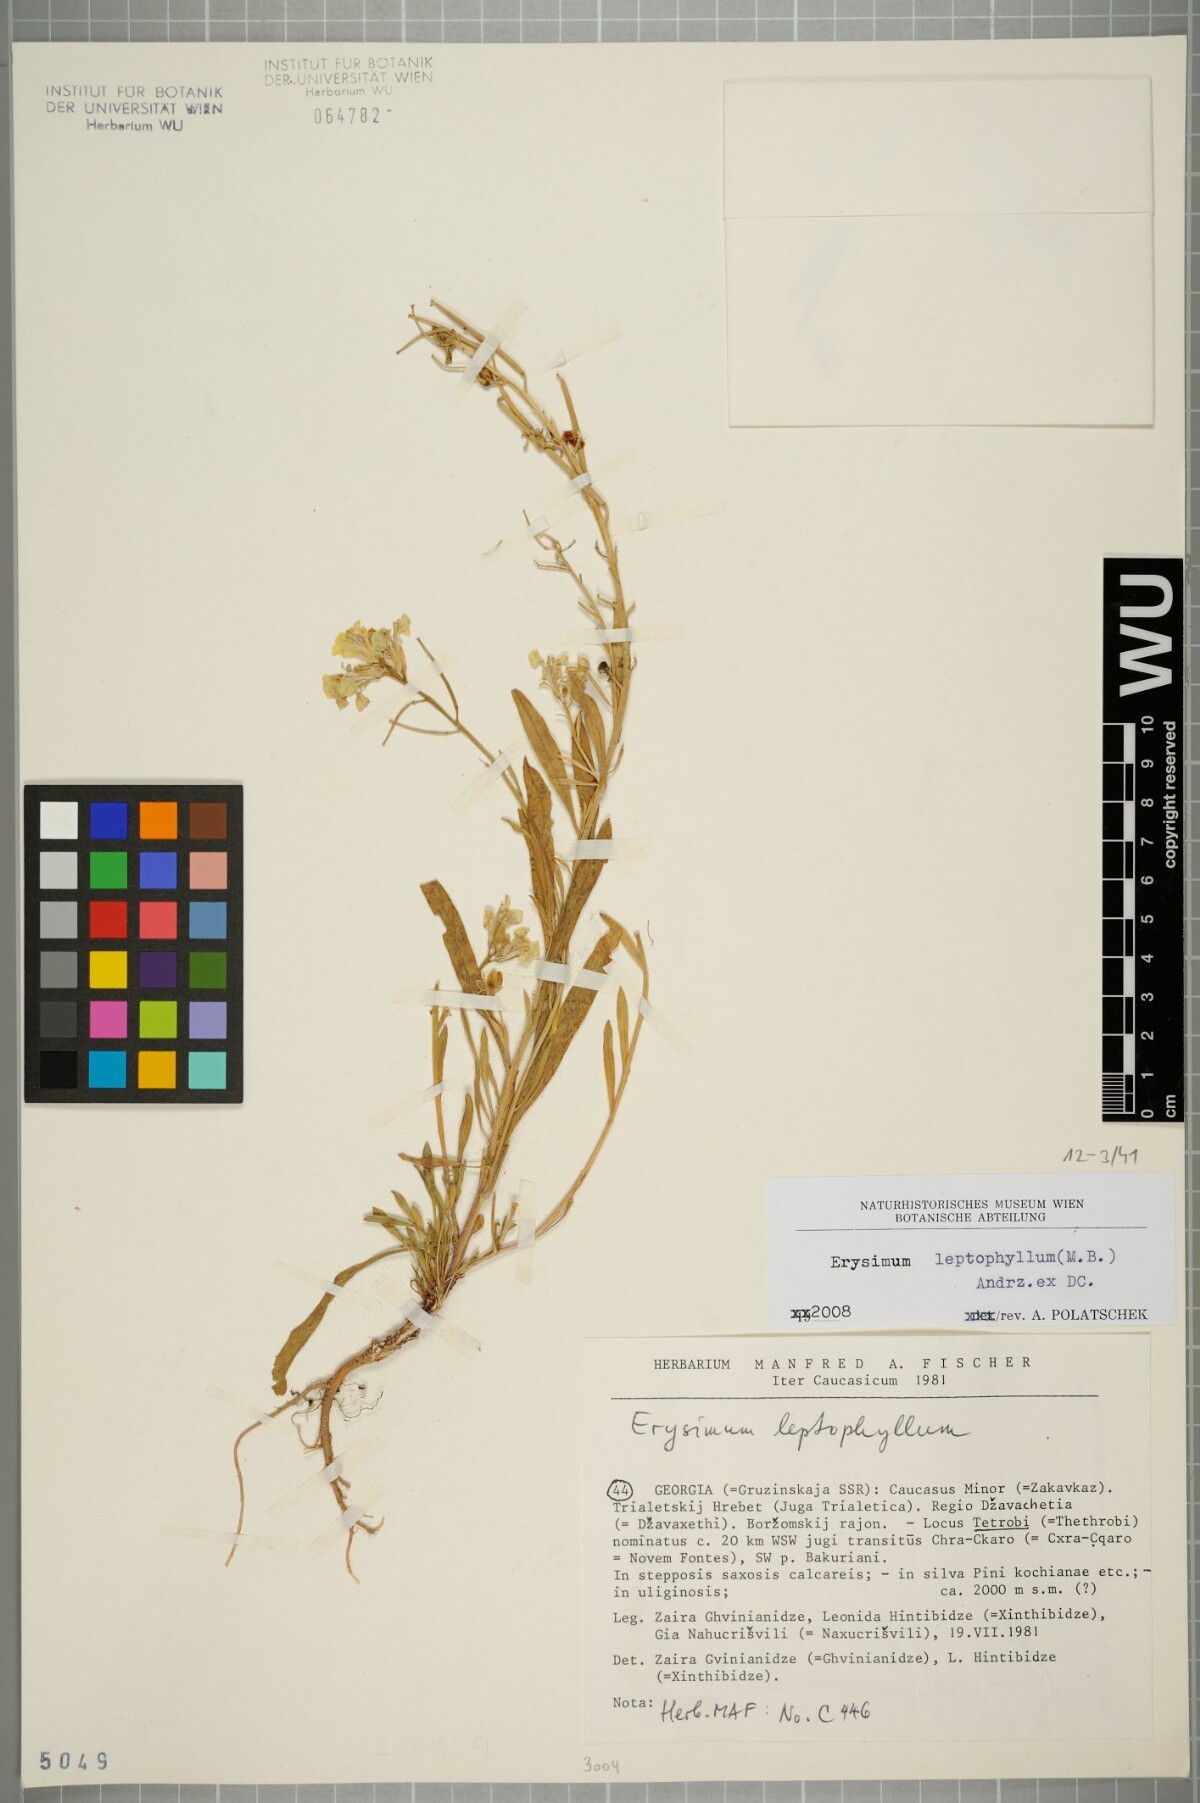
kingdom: Plantae
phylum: Tracheophyta
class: Magnoliopsida
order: Brassicales
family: Brassicaceae
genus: Erysimum
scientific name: Erysimum leptophyllum
